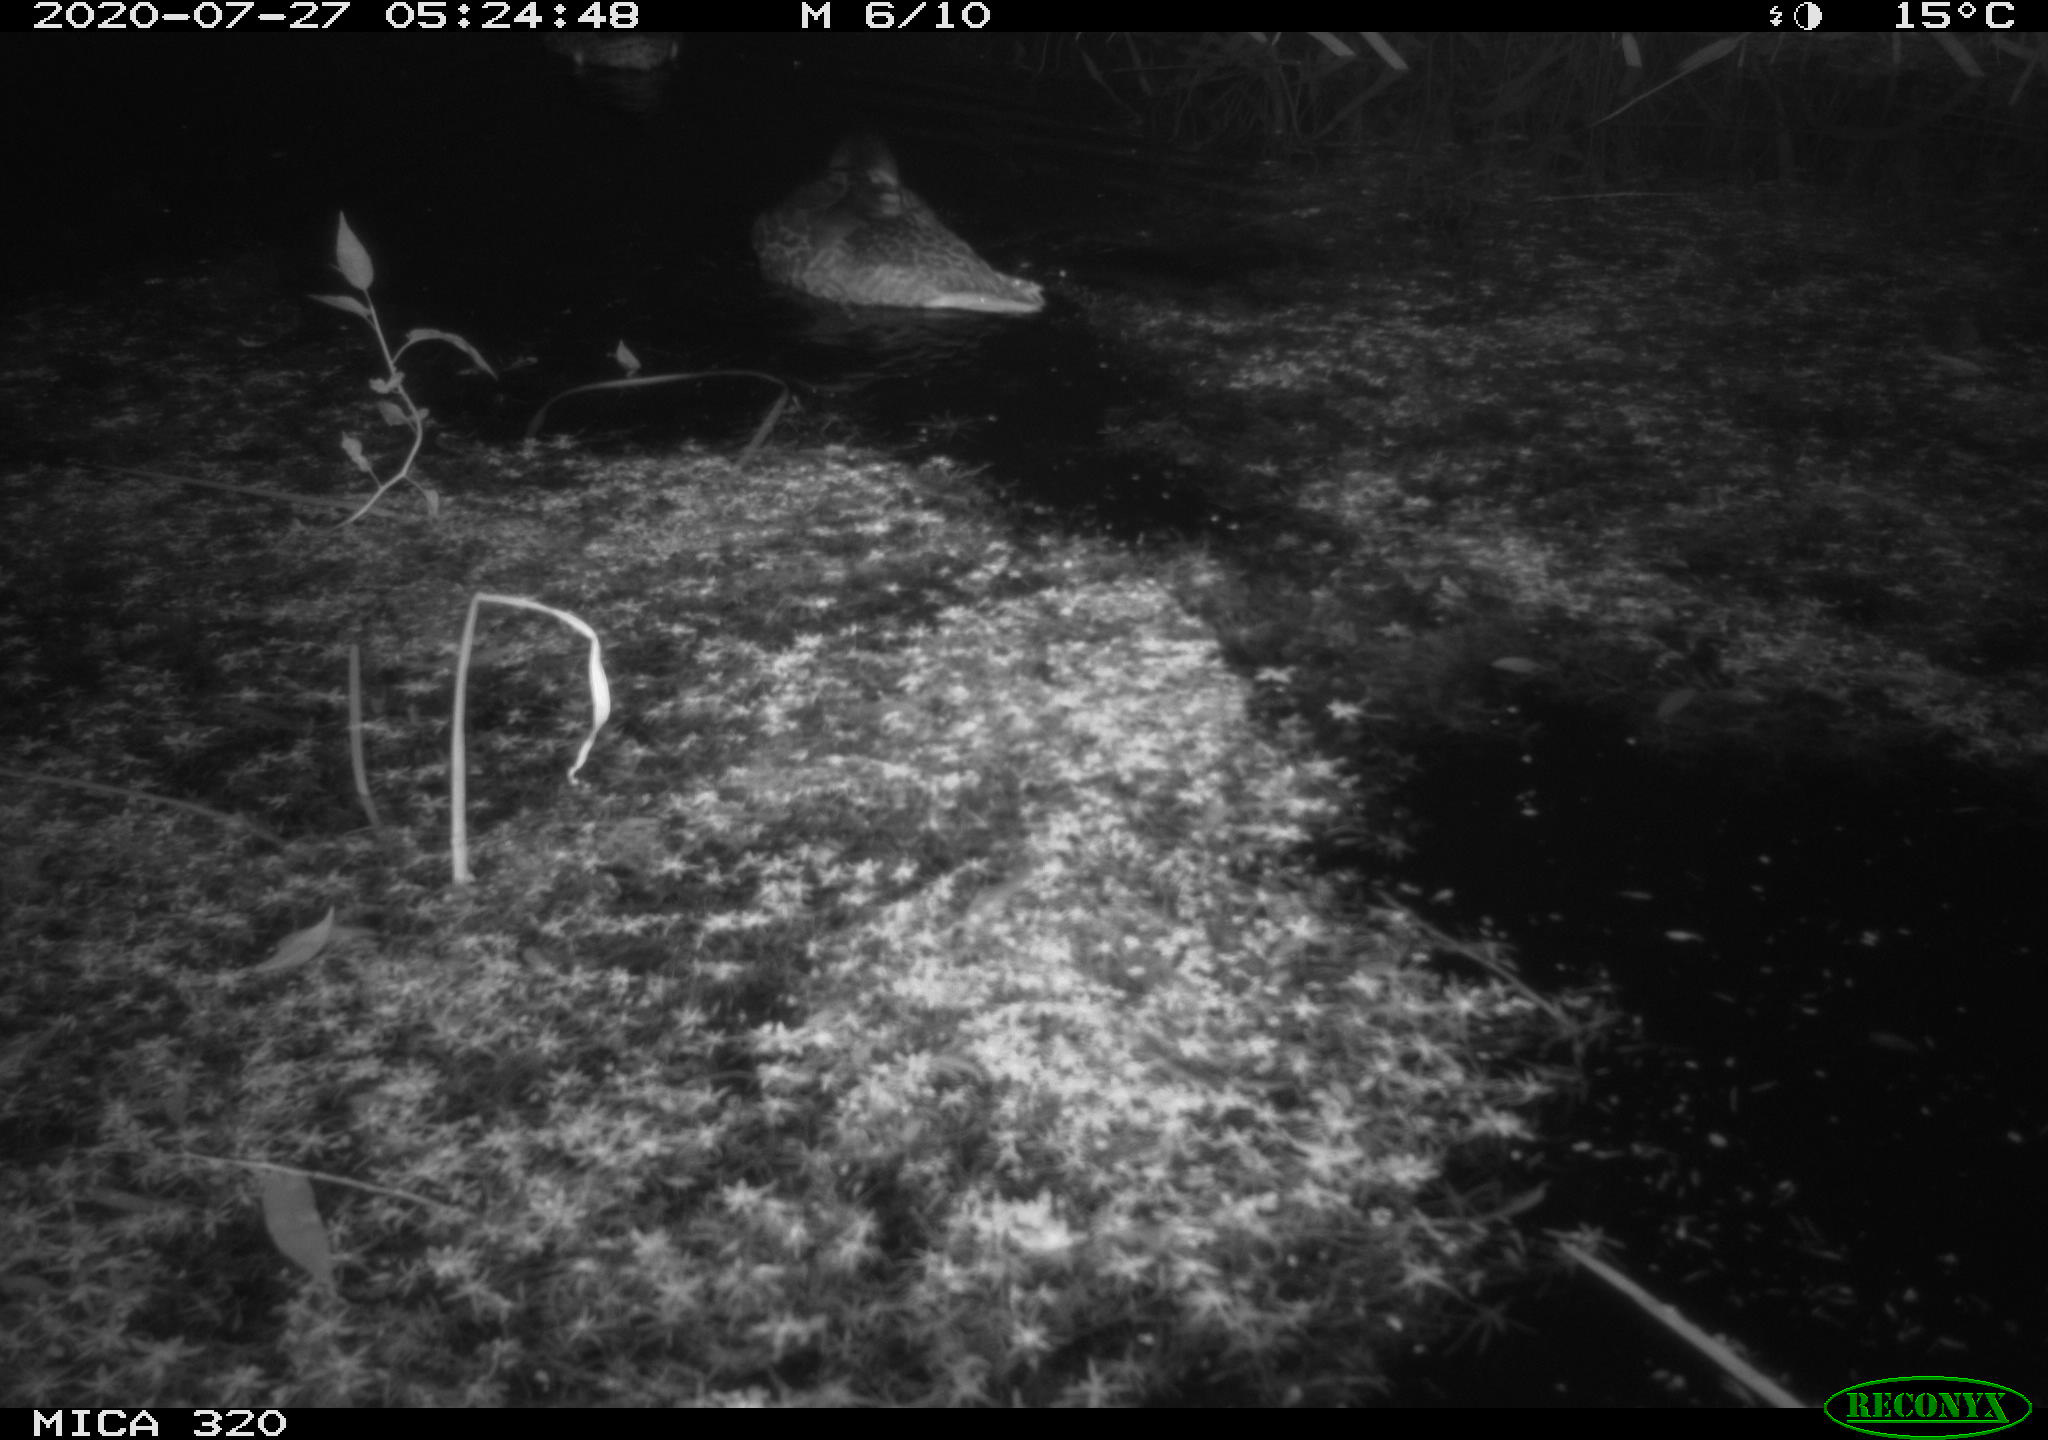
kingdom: Animalia
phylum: Chordata
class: Aves
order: Anseriformes
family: Anatidae
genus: Anas
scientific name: Anas platyrhynchos
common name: Mallard
